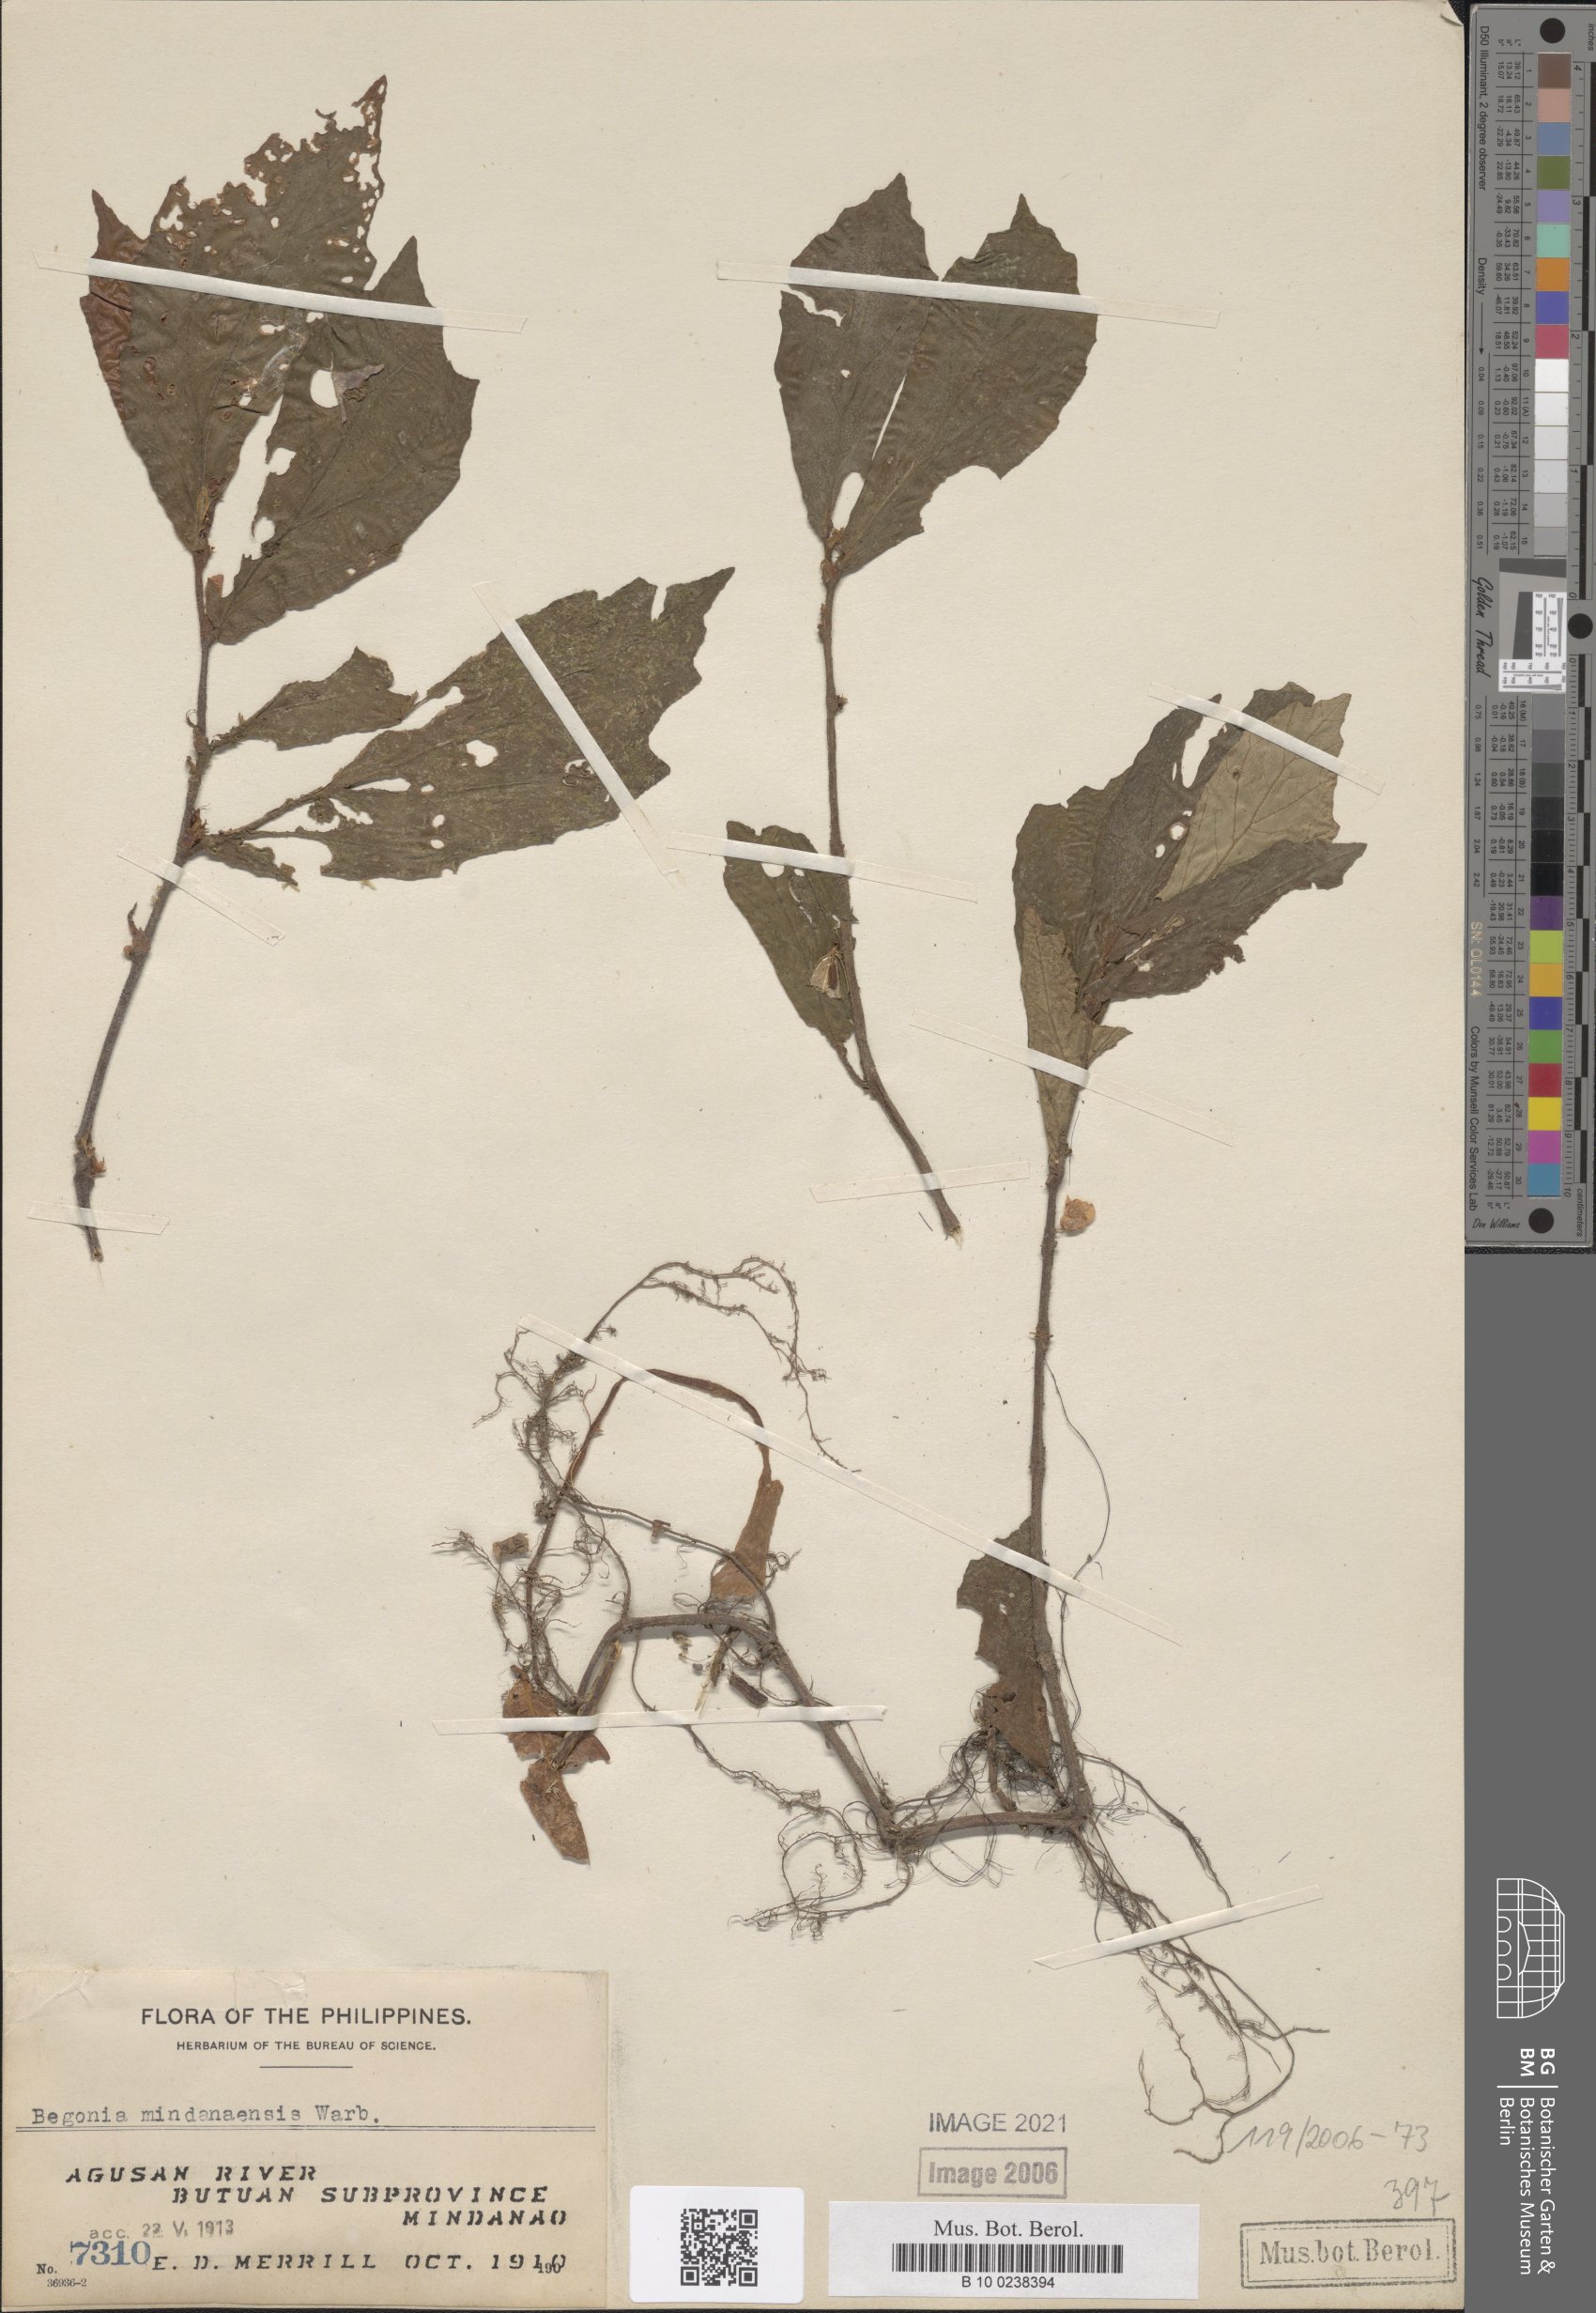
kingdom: Plantae
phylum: Tracheophyta
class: Magnoliopsida
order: Cucurbitales
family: Begoniaceae
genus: Begonia
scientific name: Begonia mindanaensis
